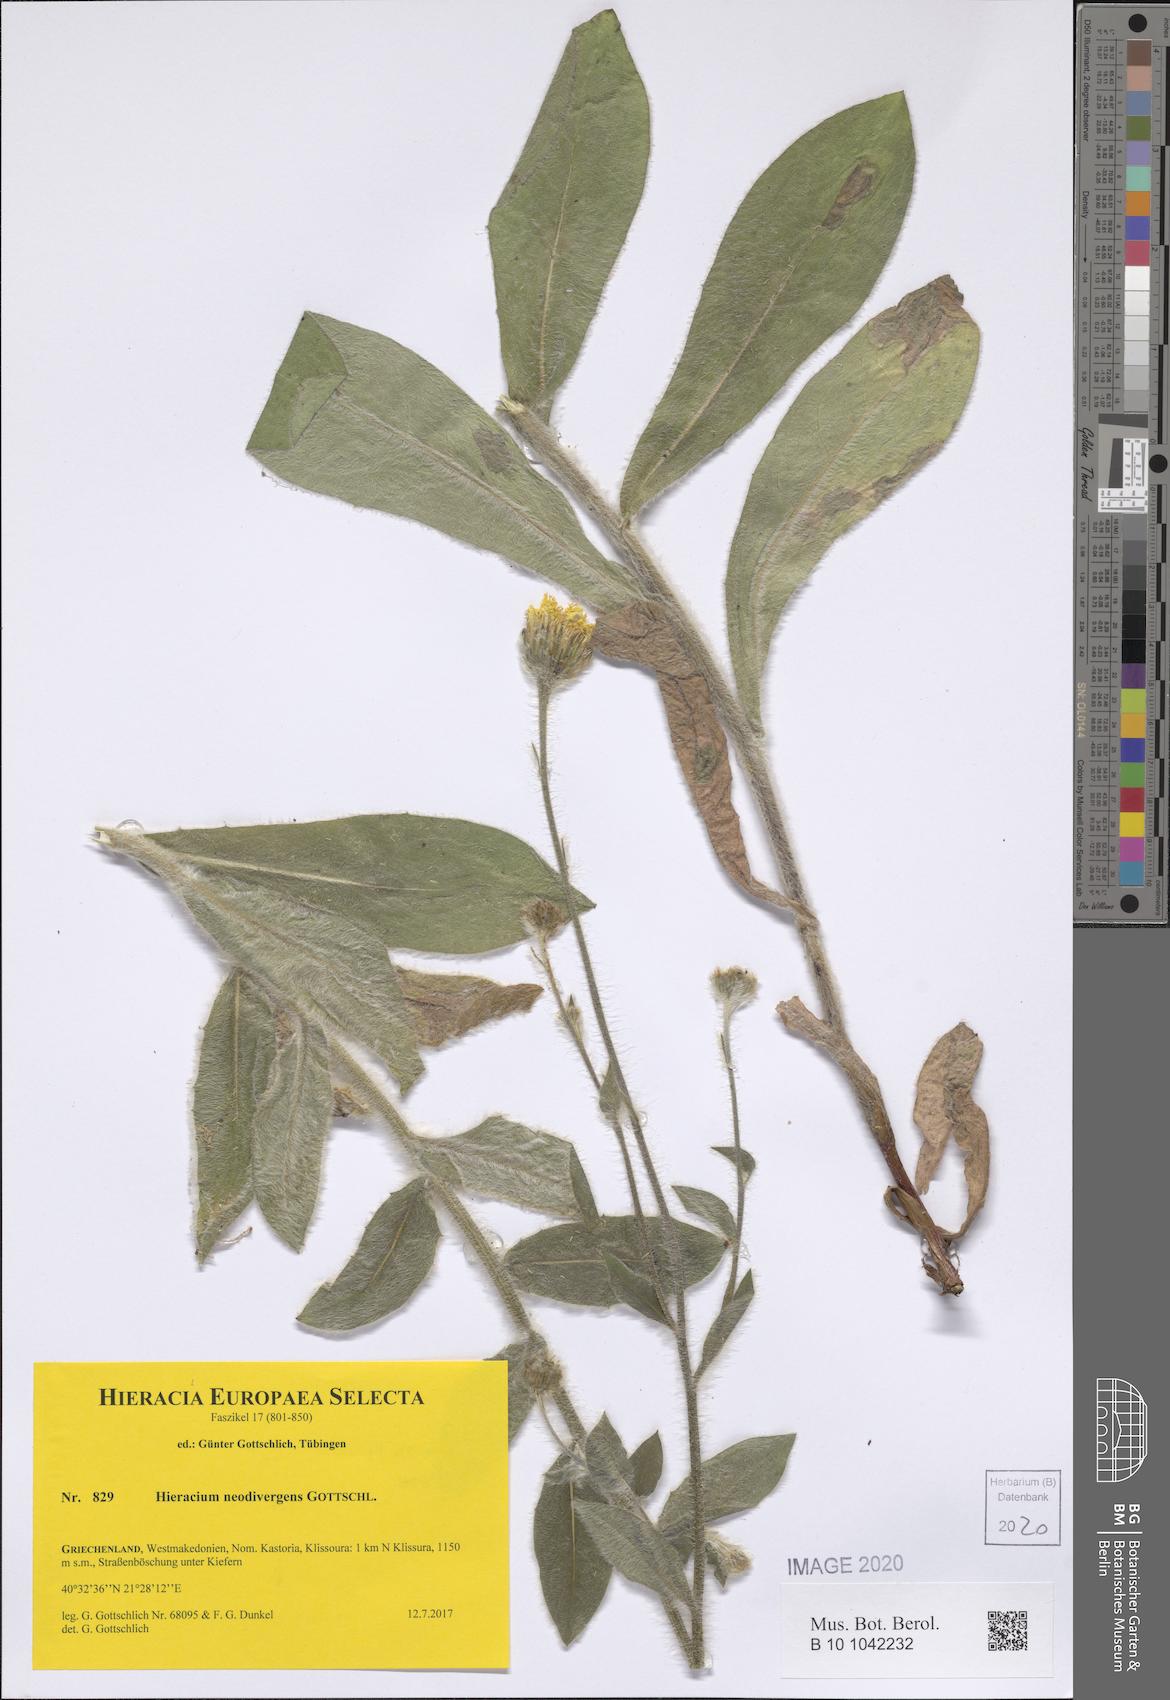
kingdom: Plantae
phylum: Tracheophyta
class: Magnoliopsida
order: Asterales
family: Asteraceae
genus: Hieracium
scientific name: Hieracium neodivergens
